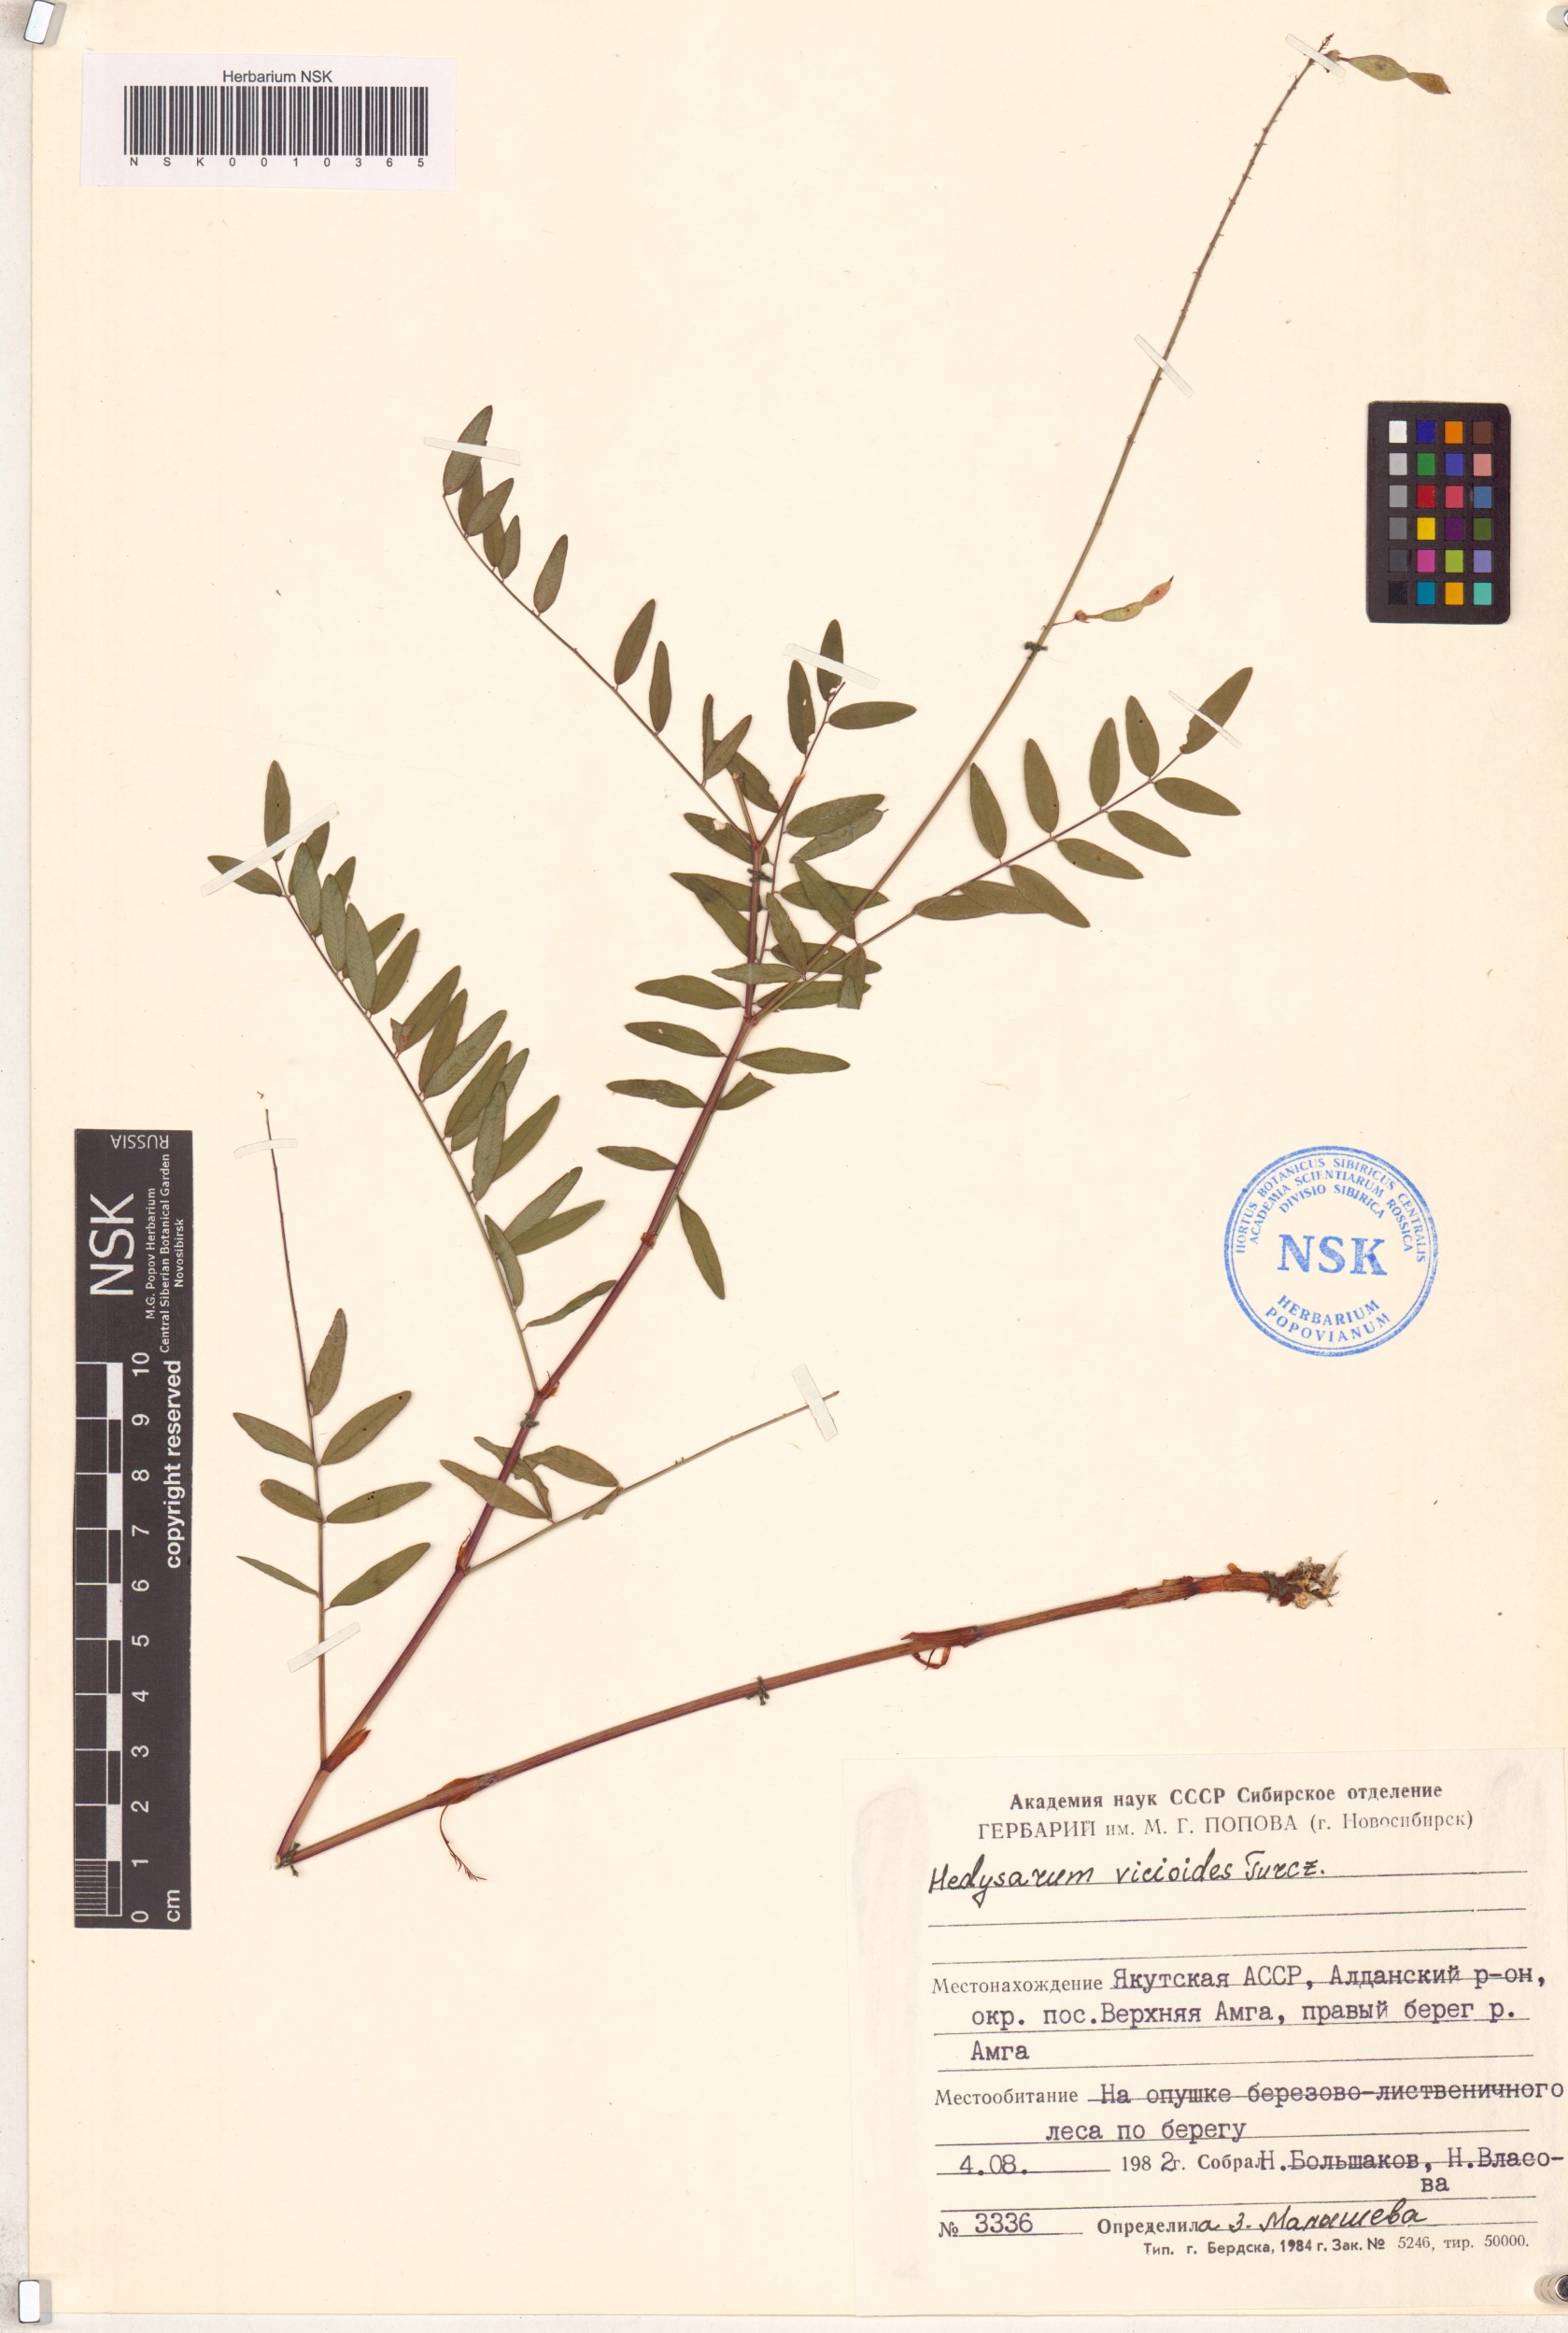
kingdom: Plantae
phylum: Tracheophyta
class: Magnoliopsida
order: Fabales
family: Fabaceae
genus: Hedysarum
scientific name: Hedysarum vicioides
